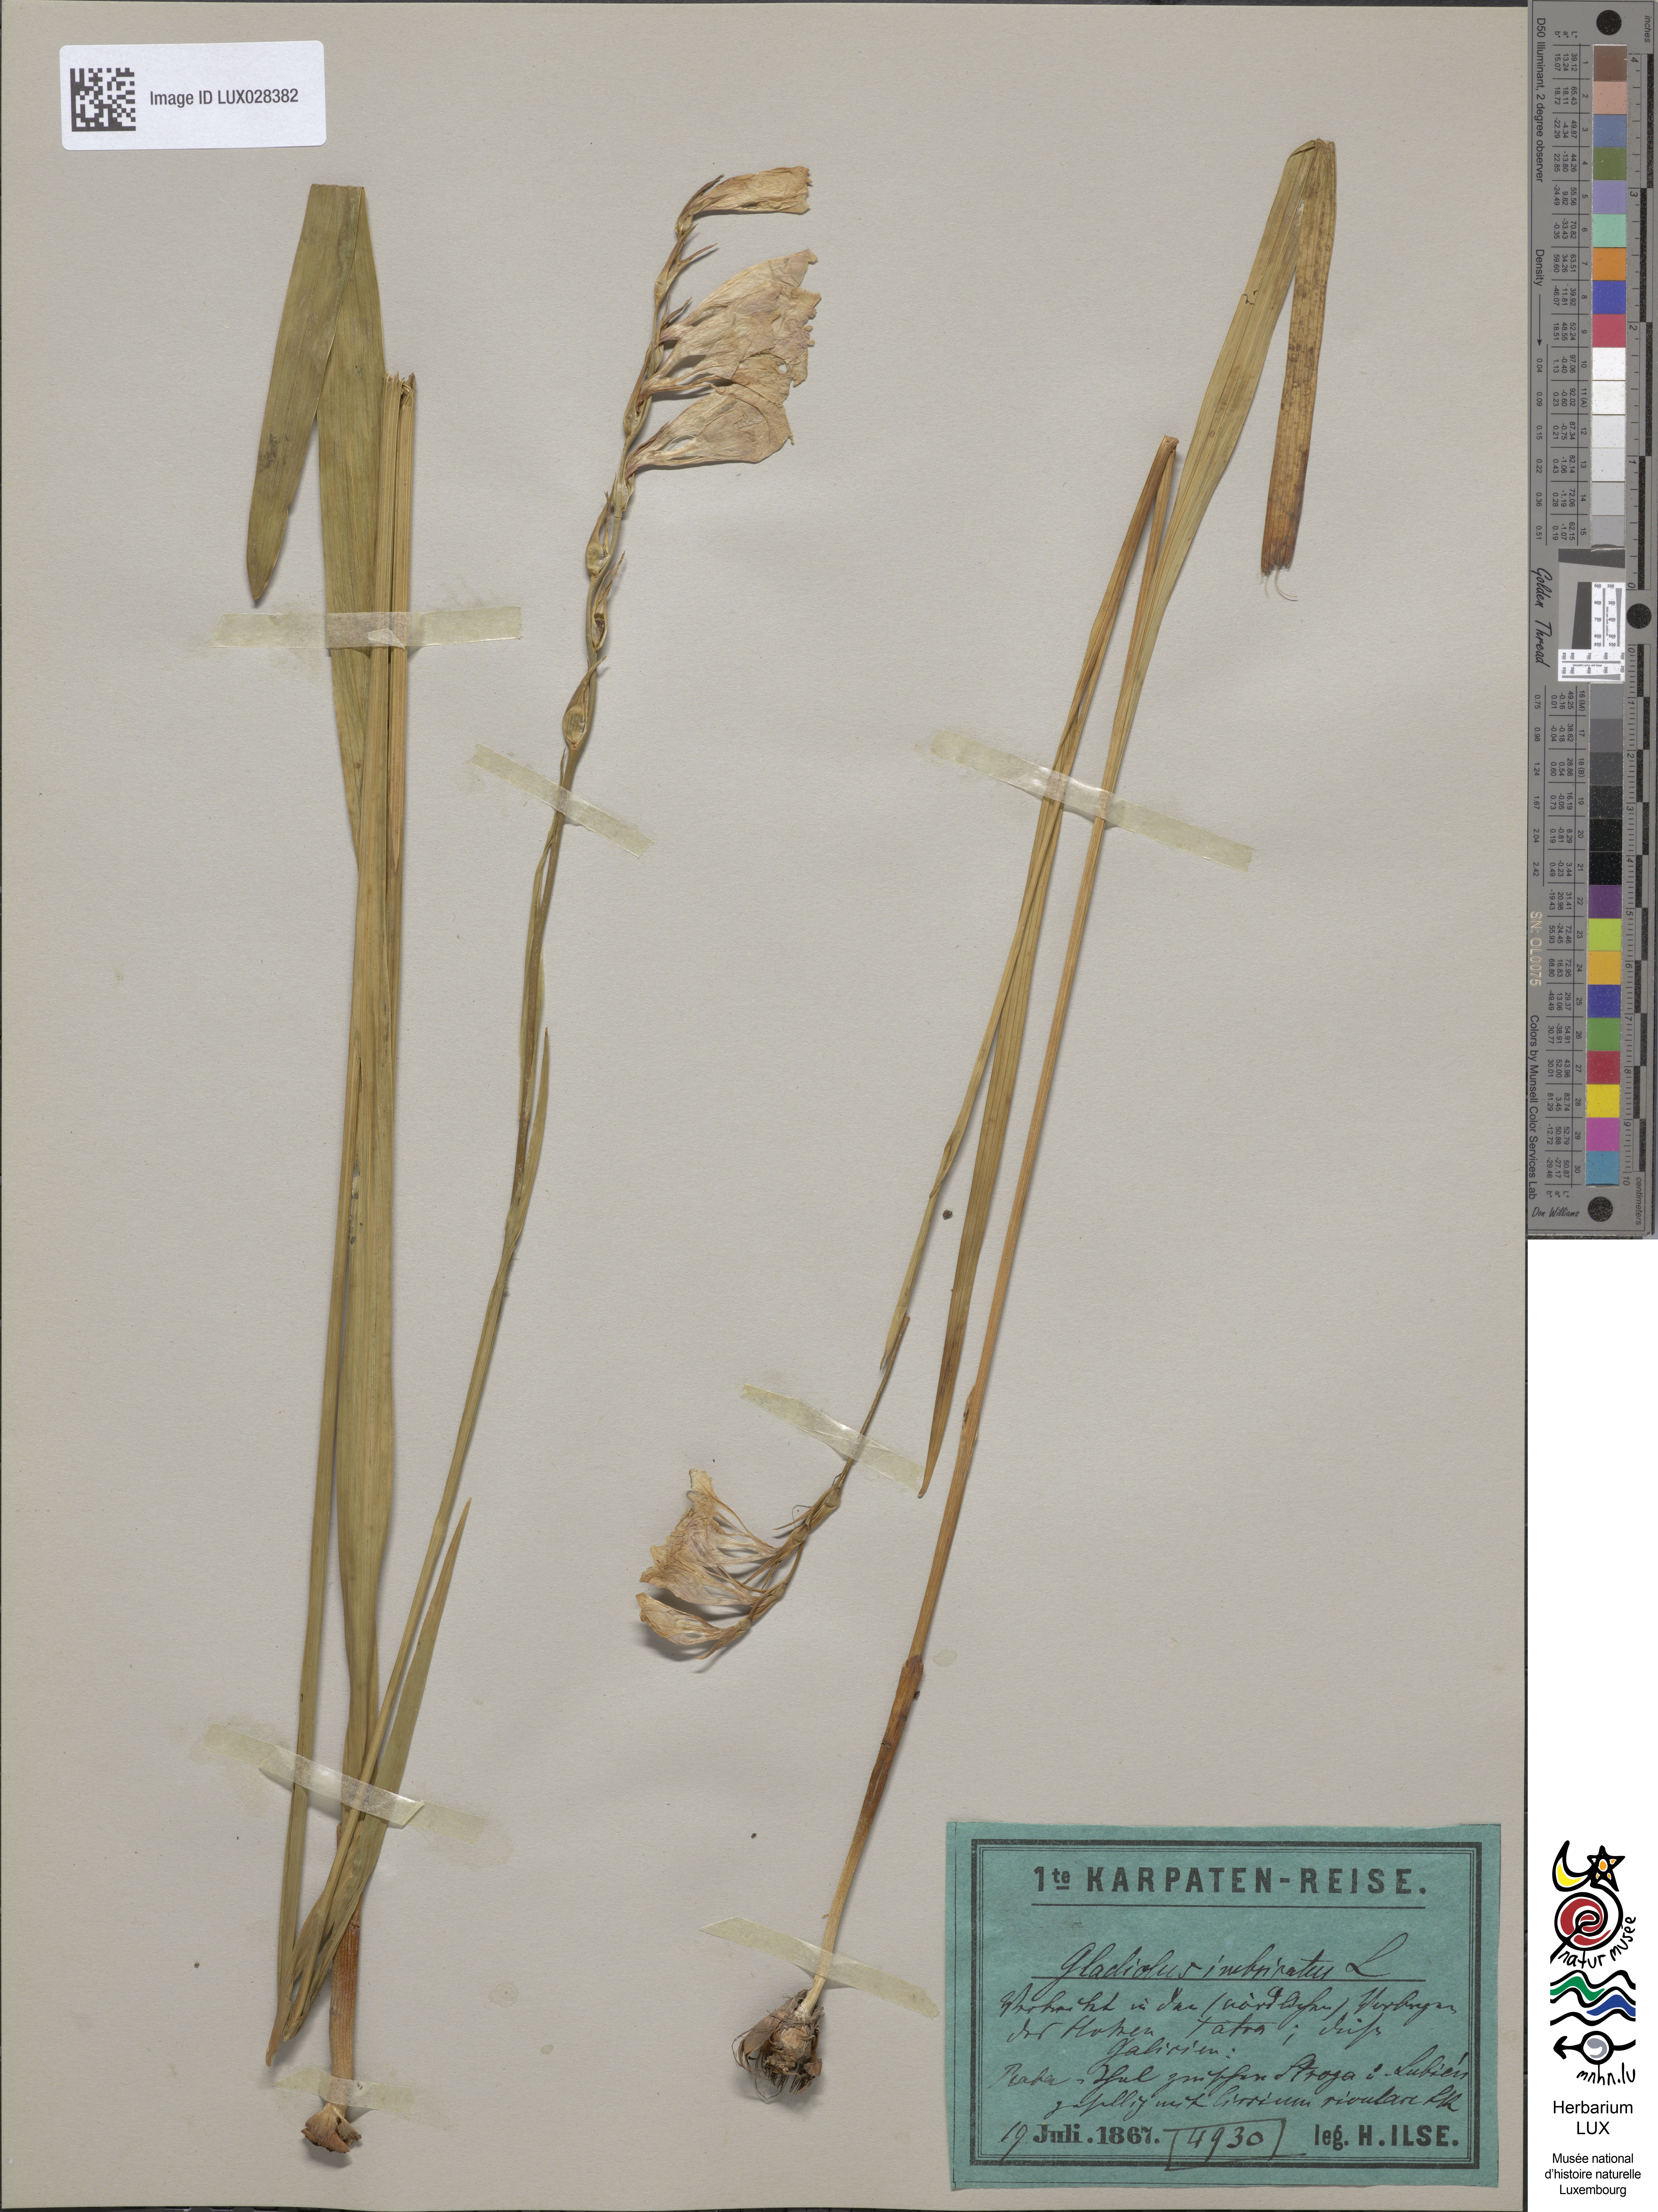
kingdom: Plantae
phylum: Tracheophyta
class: Liliopsida
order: Asparagales
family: Iridaceae
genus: Gladiolus
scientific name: Gladiolus imbricatus
